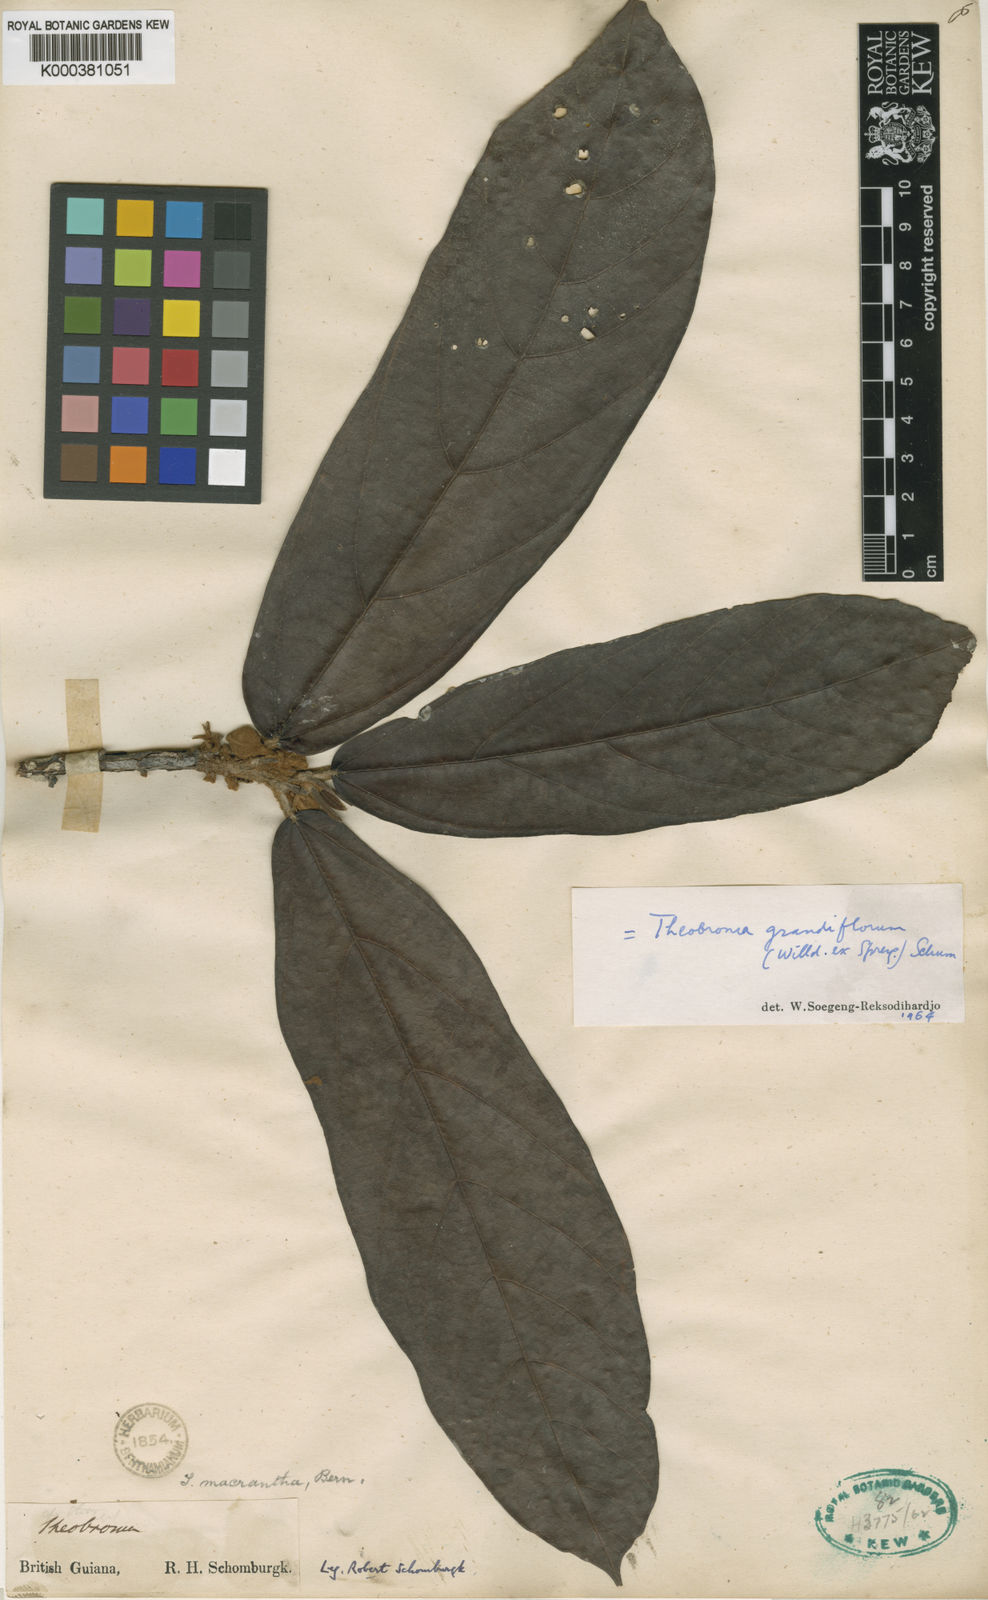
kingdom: Plantae
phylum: Tracheophyta
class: Magnoliopsida
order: Malvales
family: Malvaceae
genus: Theobroma
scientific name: Theobroma grandiflorum
